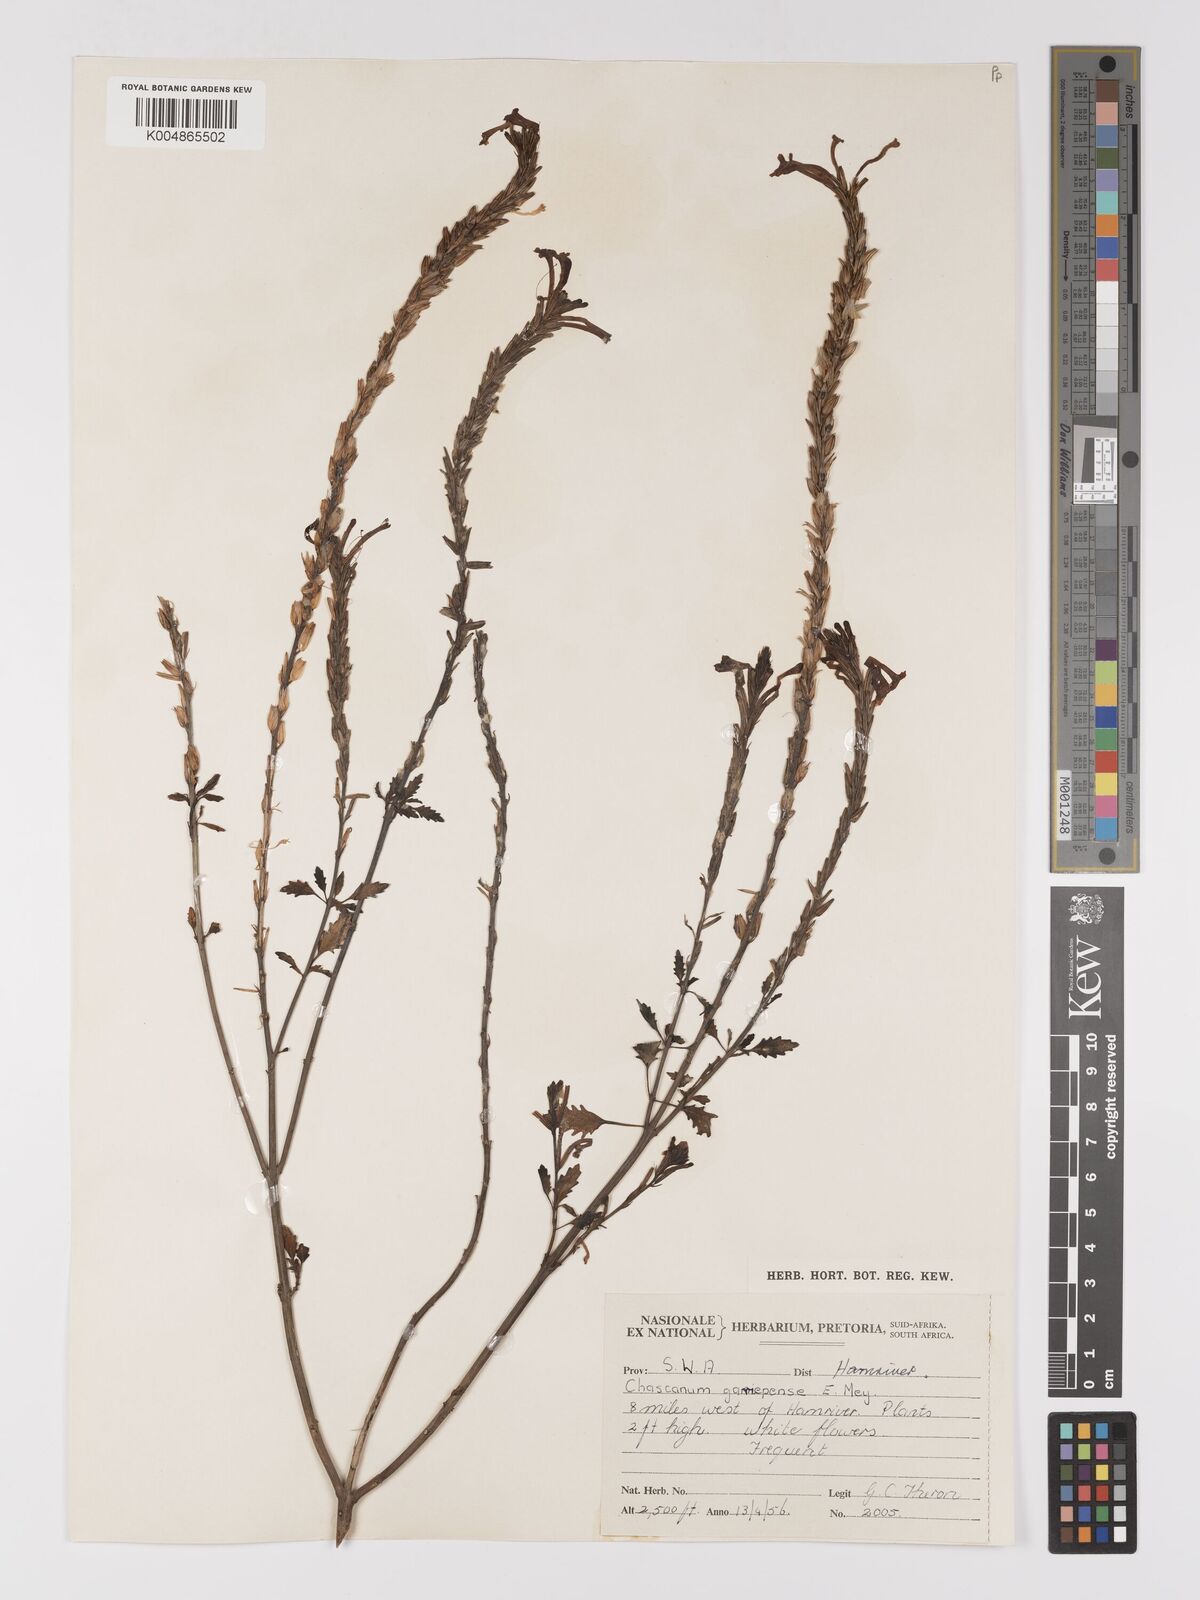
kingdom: Plantae
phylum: Tracheophyta
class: Magnoliopsida
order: Lamiales
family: Verbenaceae
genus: Chascanum
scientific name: Chascanum garipense
